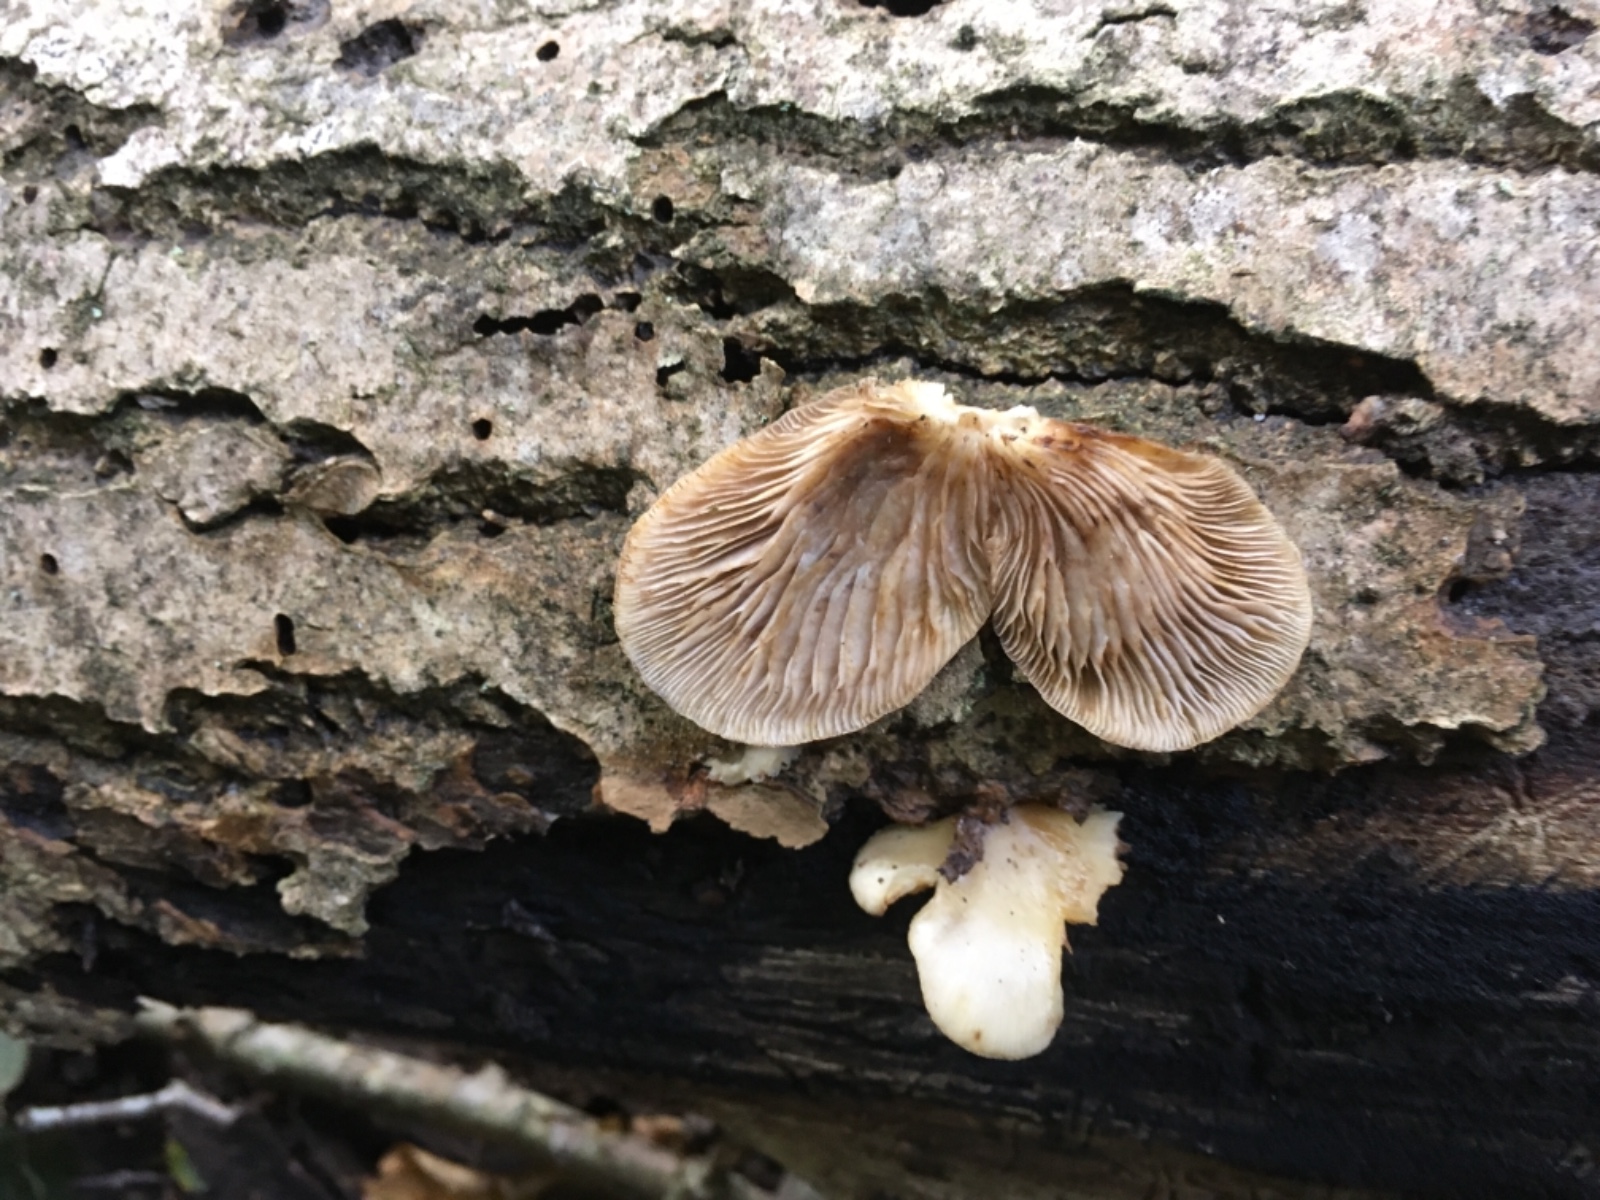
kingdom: Fungi
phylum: Basidiomycota
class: Agaricomycetes
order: Agaricales
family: Crepidotaceae
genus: Crepidotus
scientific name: Crepidotus mollis
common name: blød muslingesvamp
